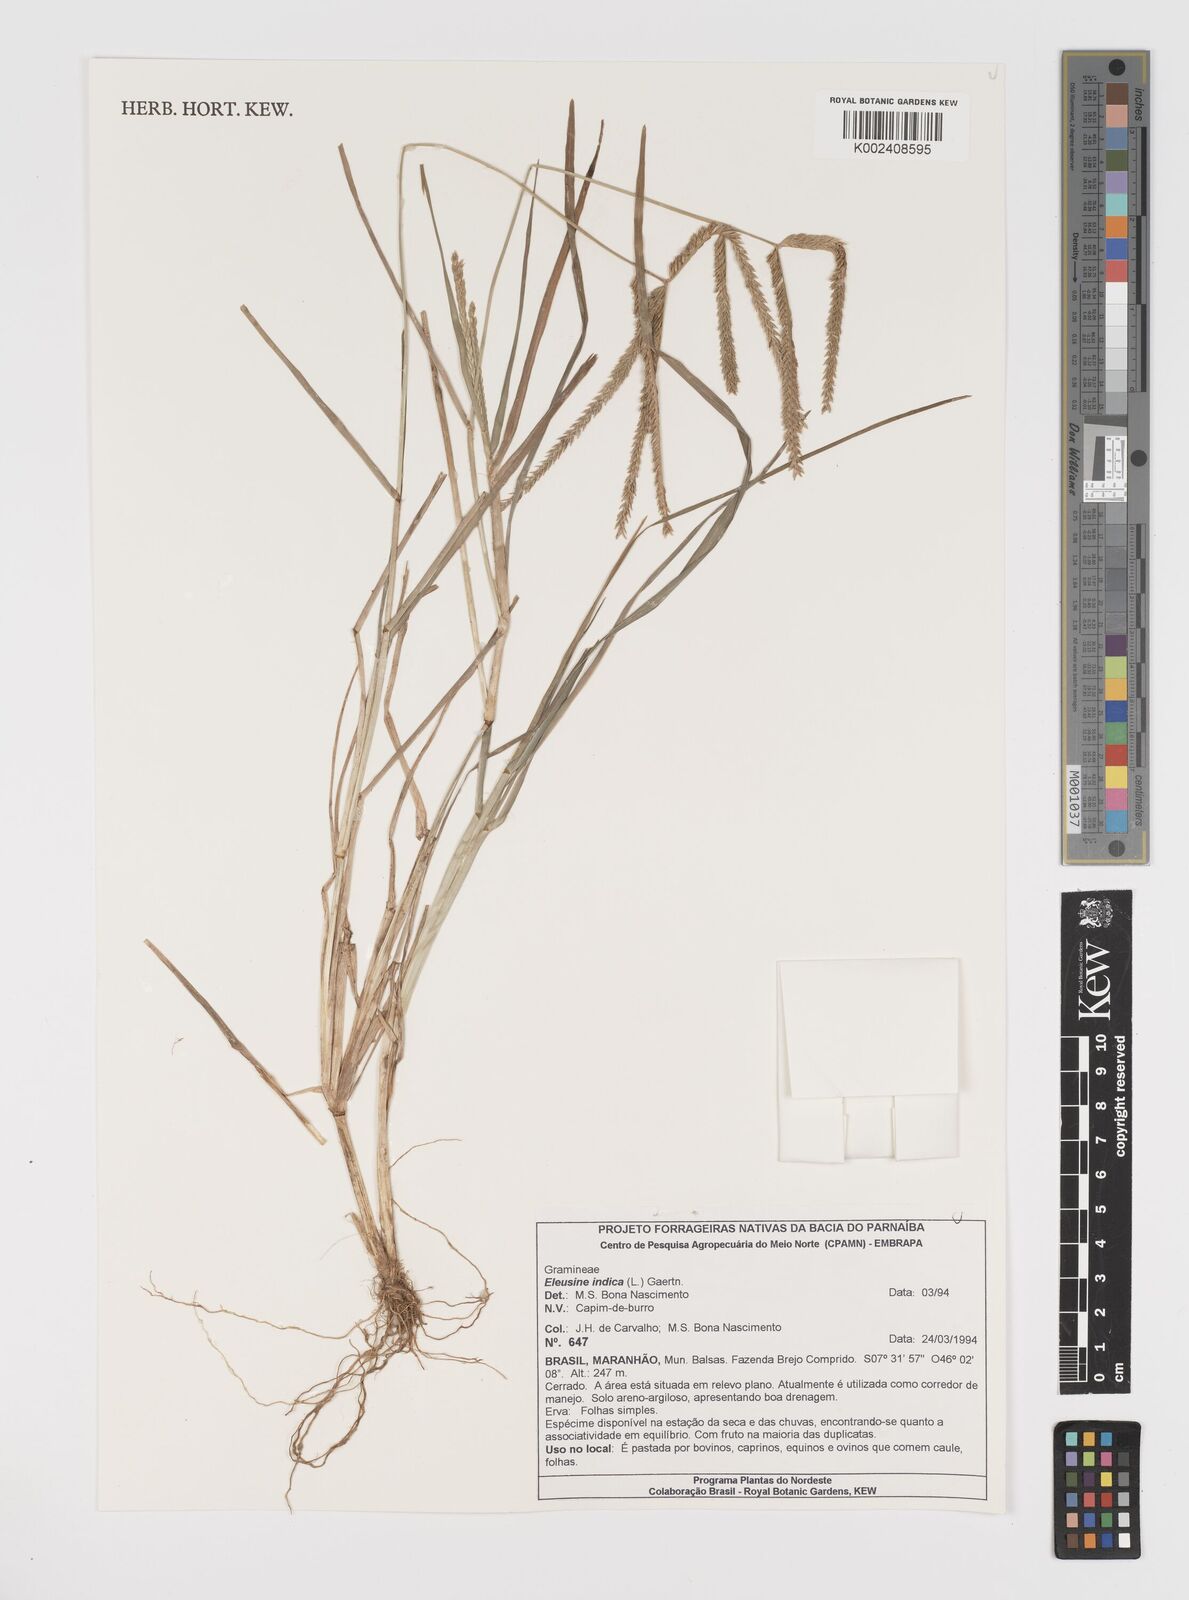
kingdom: Plantae
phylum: Tracheophyta
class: Liliopsida
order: Poales
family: Poaceae
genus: Eleusine
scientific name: Eleusine indica
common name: Yard-grass
